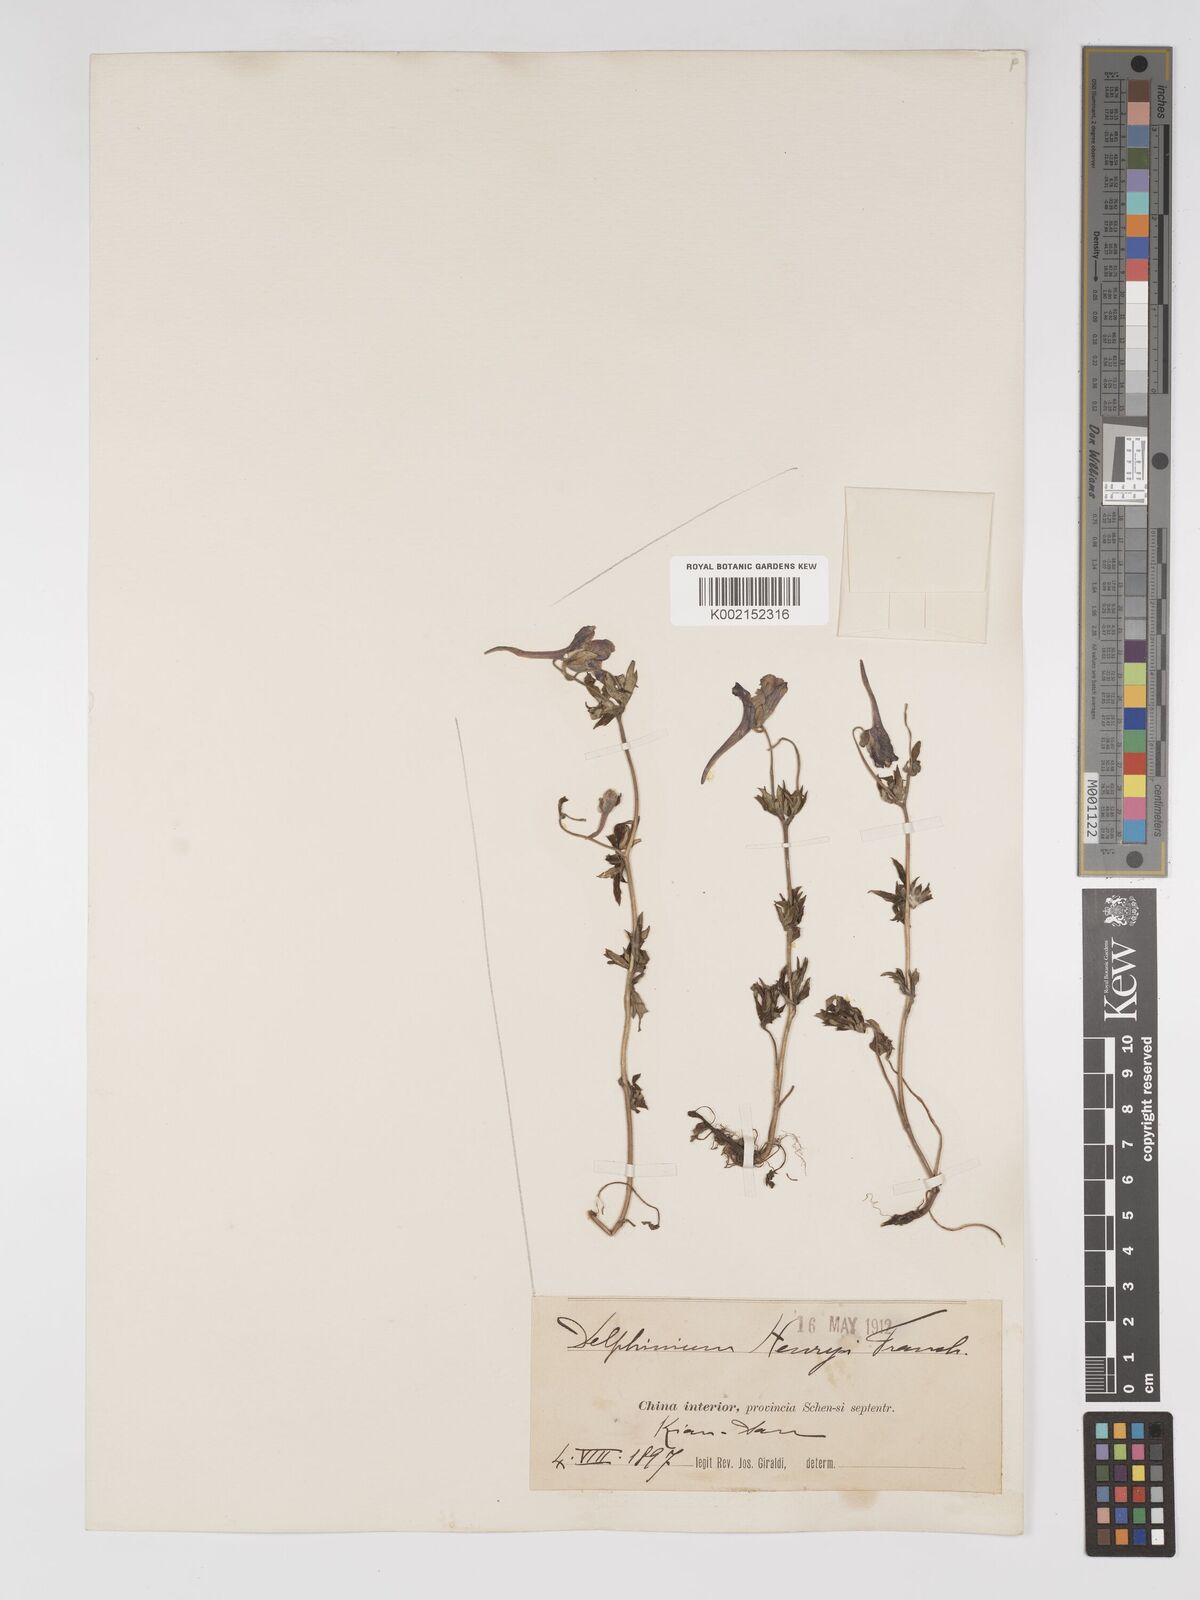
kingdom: Plantae
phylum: Tracheophyta
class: Magnoliopsida
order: Ranunculales
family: Ranunculaceae
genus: Delphinium
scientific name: Delphinium henryi
